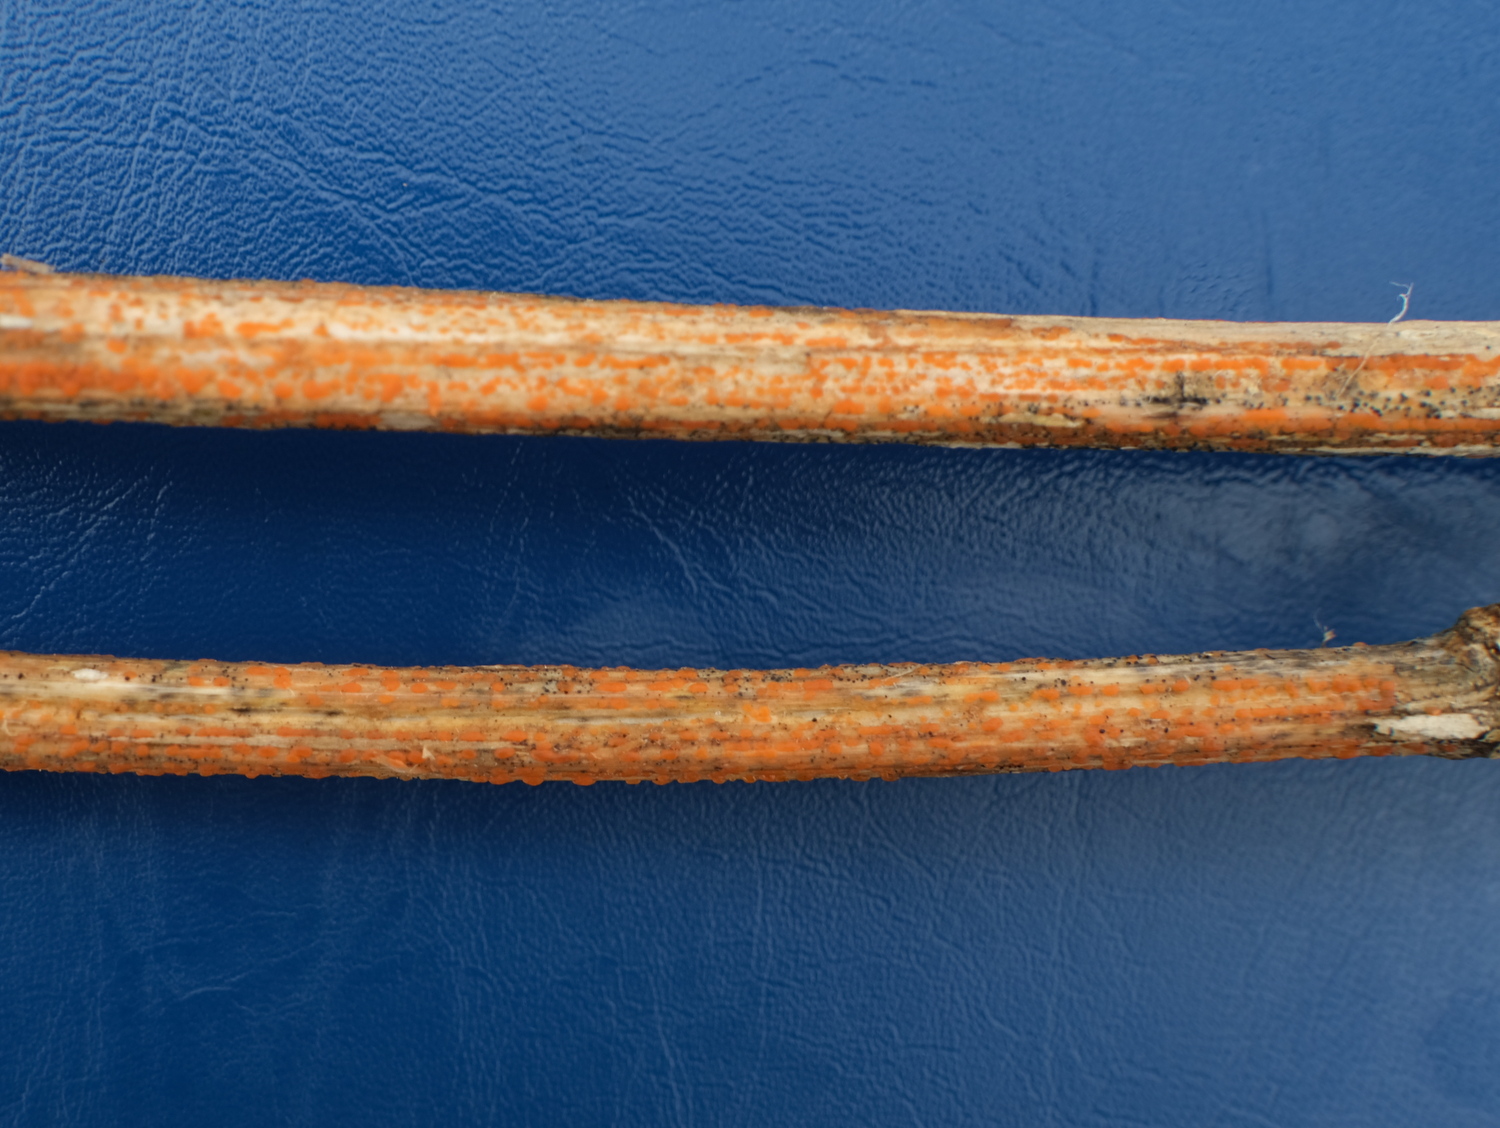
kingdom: Fungi
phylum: Ascomycota
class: Leotiomycetes
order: Helotiales
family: Calloriaceae
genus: Calloria
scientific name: Calloria urticae
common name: nælde-orangeskive
